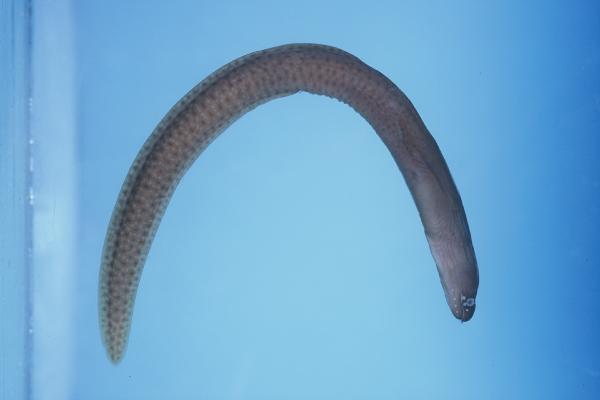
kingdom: Animalia
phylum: Chordata
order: Anguilliformes
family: Muraenidae
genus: Gymnothorax
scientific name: Gymnothorax fuscomaculatus
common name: Freckled moray
